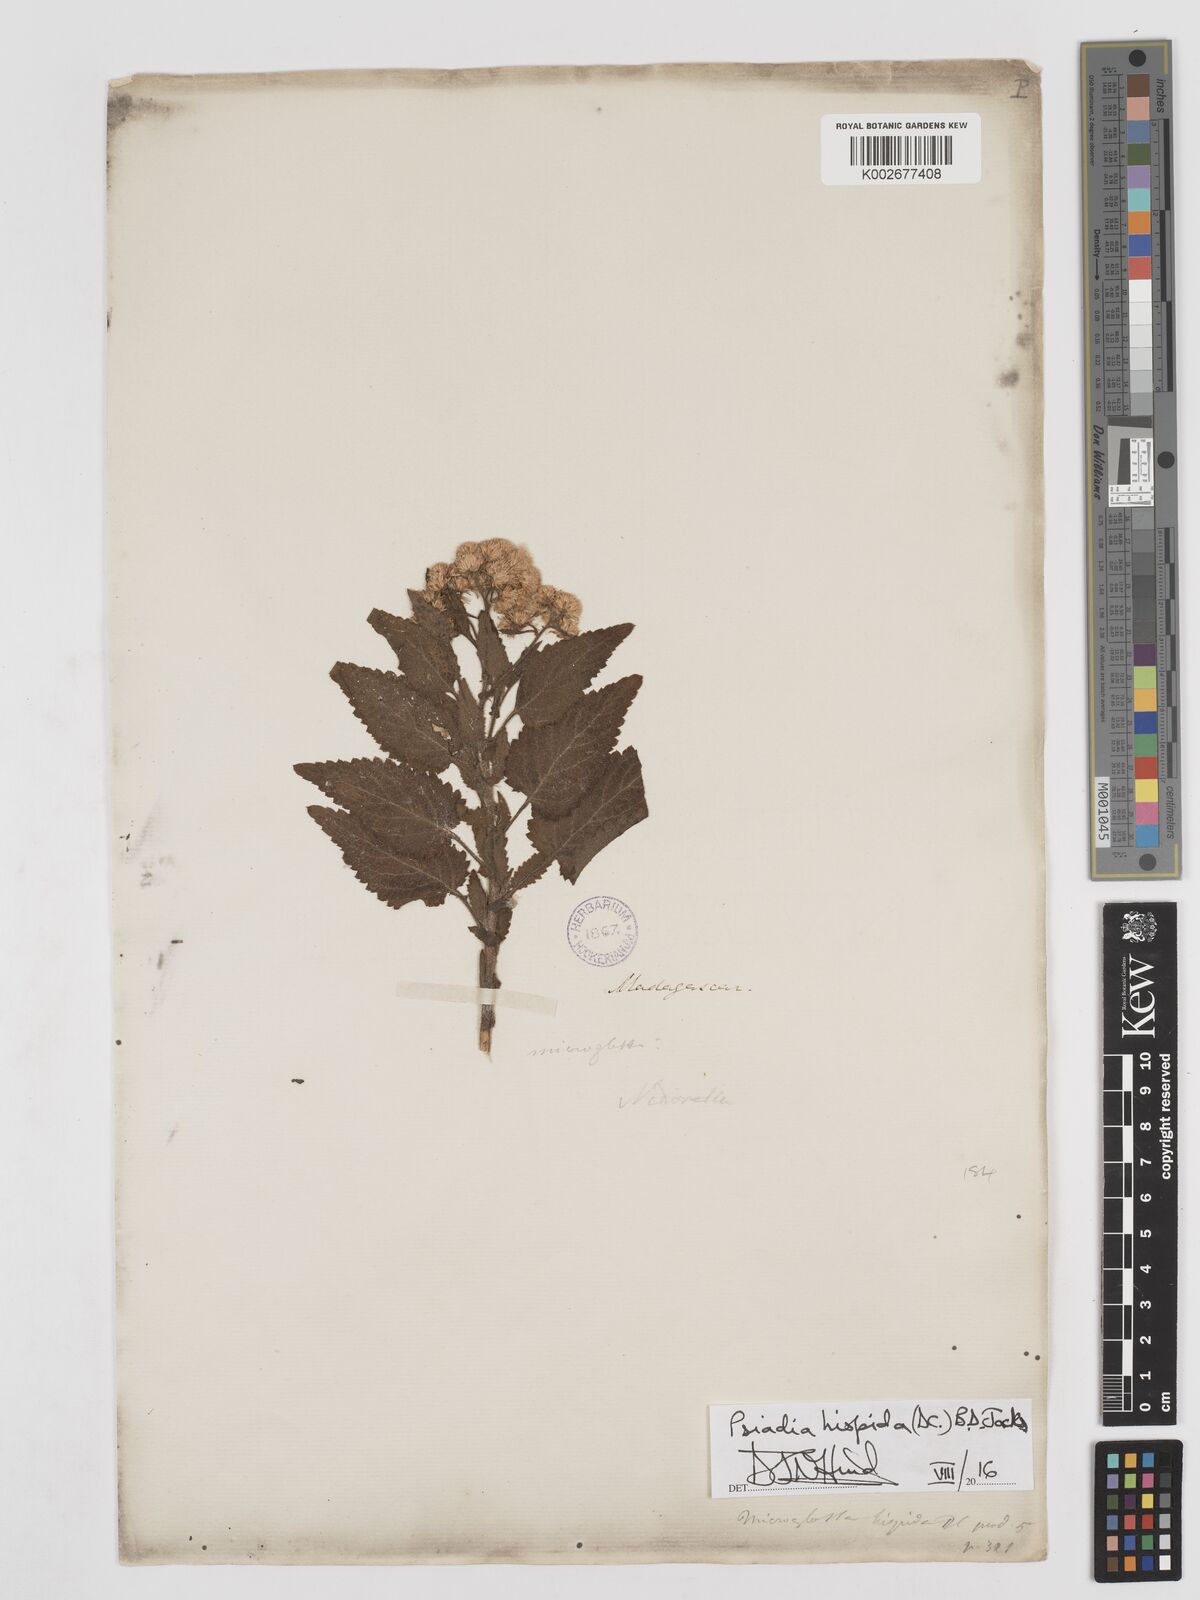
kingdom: Plantae
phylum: Tracheophyta
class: Magnoliopsida
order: Asterales
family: Asteraceae
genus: Psiadia
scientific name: Psiadia hispida
